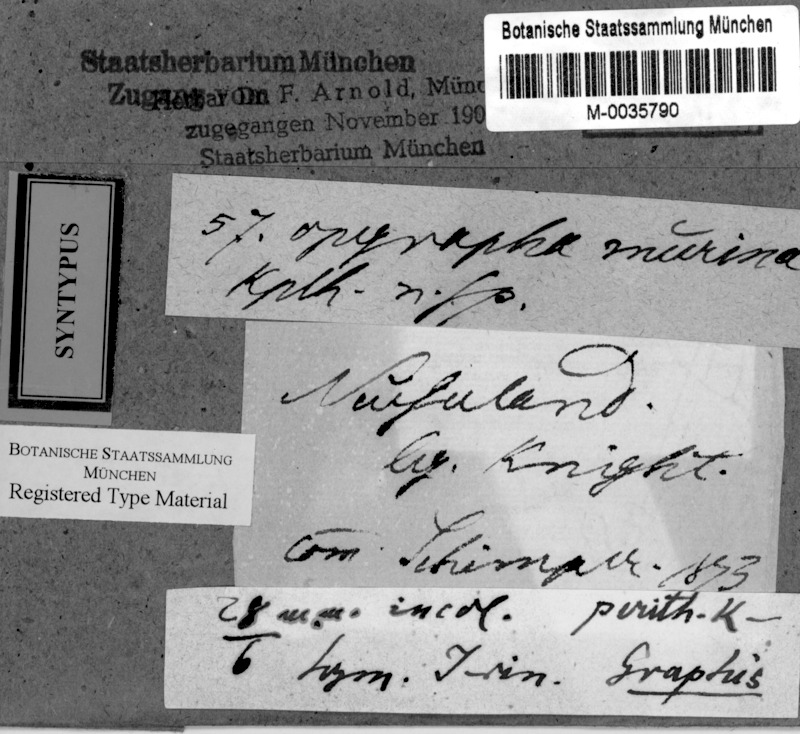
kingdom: Fungi
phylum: Ascomycota
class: Arthoniomycetes
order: Arthoniales
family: Opegraphaceae
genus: Opegrapha
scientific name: Opegrapha
